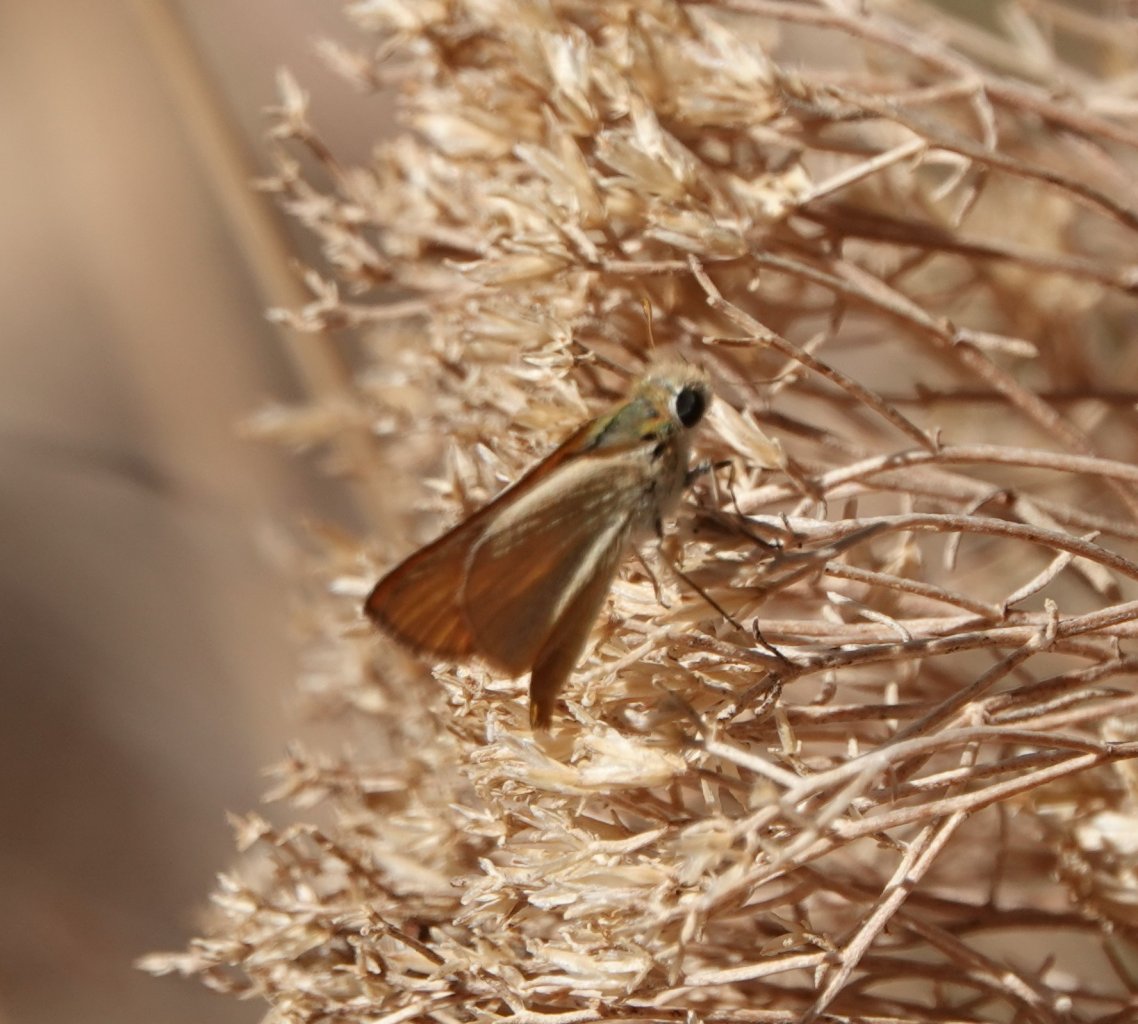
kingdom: Animalia
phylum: Arthropoda
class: Insecta
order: Lepidoptera
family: Hesperiidae
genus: Copaeodes
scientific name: Copaeodes aurantiaca
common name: Orange Skipperling
